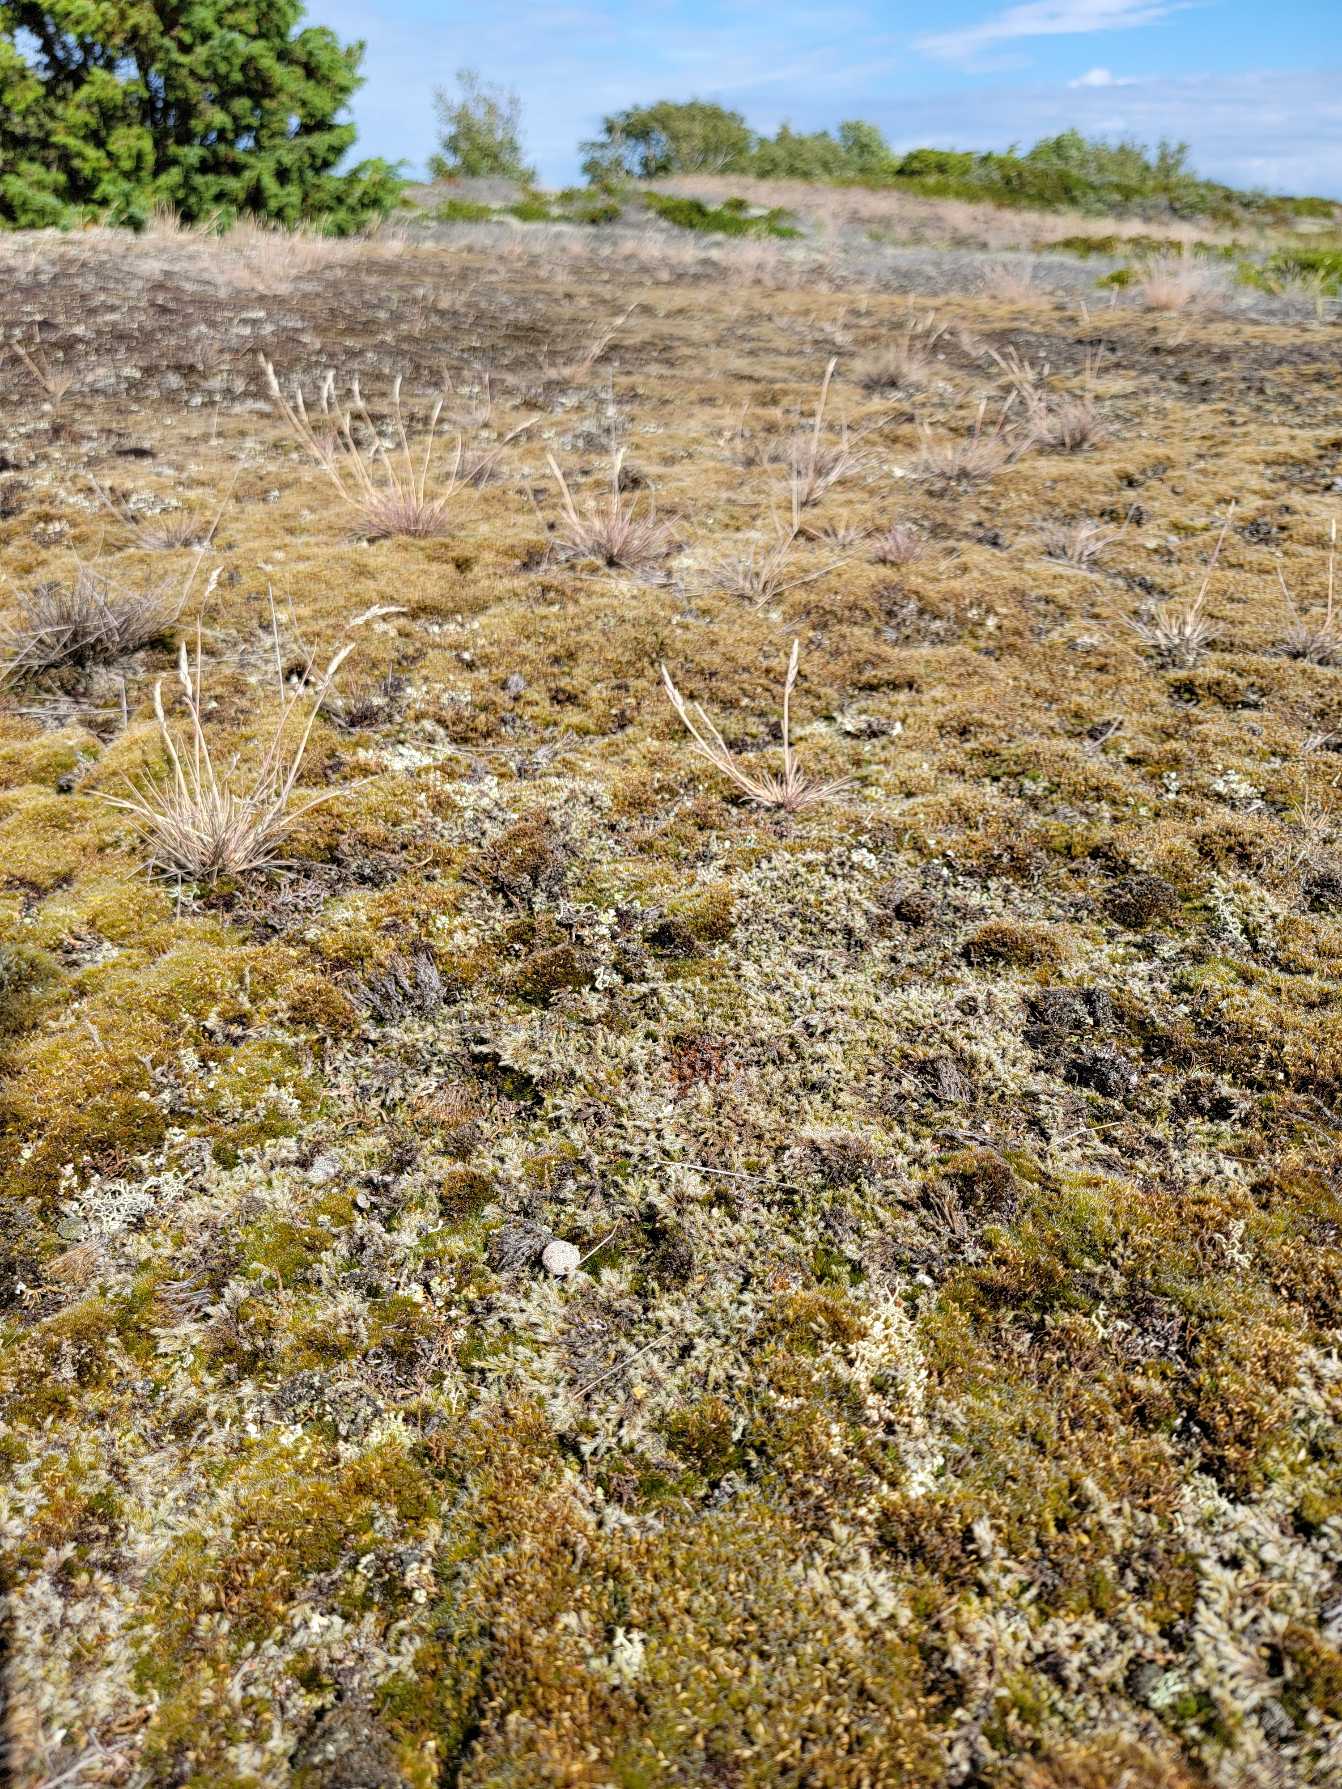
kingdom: Plantae
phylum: Bryophyta
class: Bryopsida
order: Grimmiales
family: Grimmiaceae
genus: Racomitrium
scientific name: Racomitrium lanuginosum
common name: Stor børstemos
